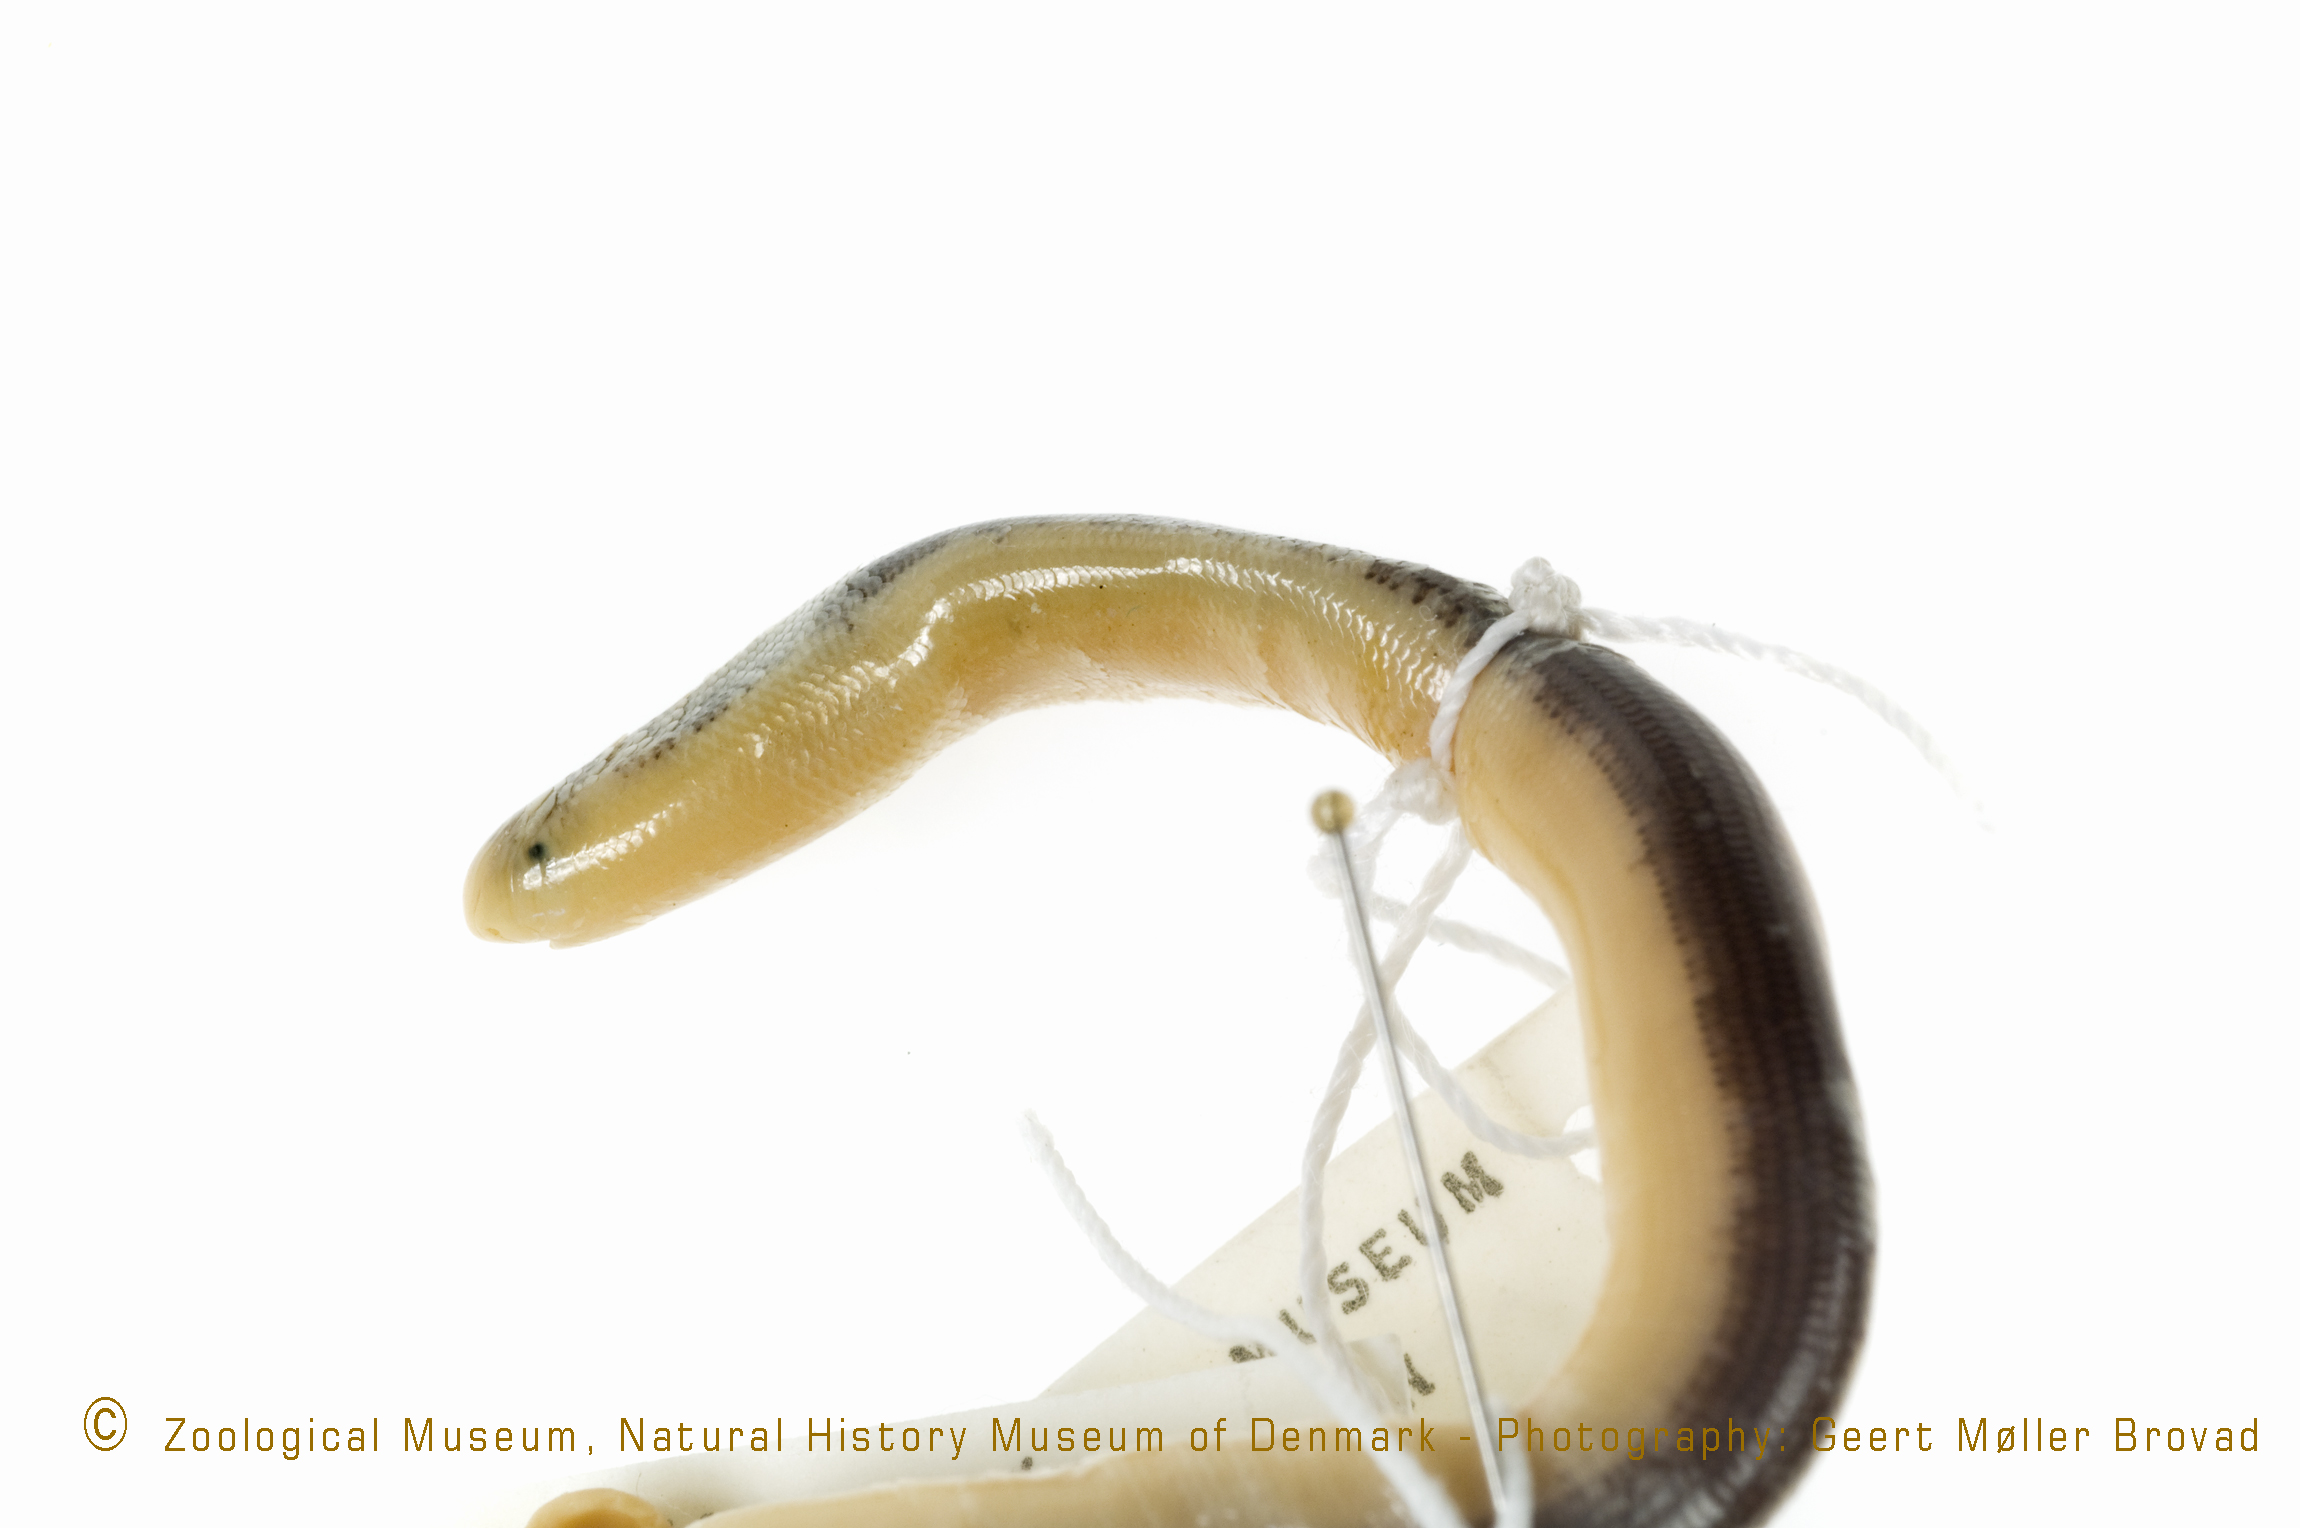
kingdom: Animalia
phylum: Chordata
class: Squamata
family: Typhlopidae
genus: Afrotyphlops
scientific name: Afrotyphlops nigrocandidus
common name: Bicoloured blind skink
